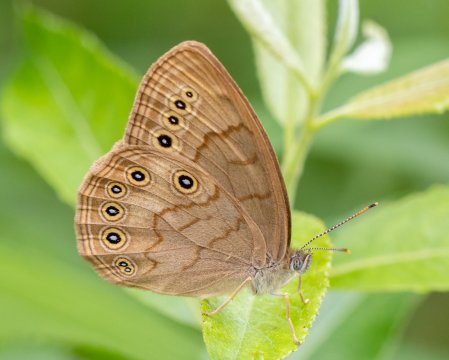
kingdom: Animalia
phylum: Arthropoda
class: Insecta
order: Lepidoptera
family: Nymphalidae
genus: Lethe
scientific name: Lethe eurydice
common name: Eyed Brown
